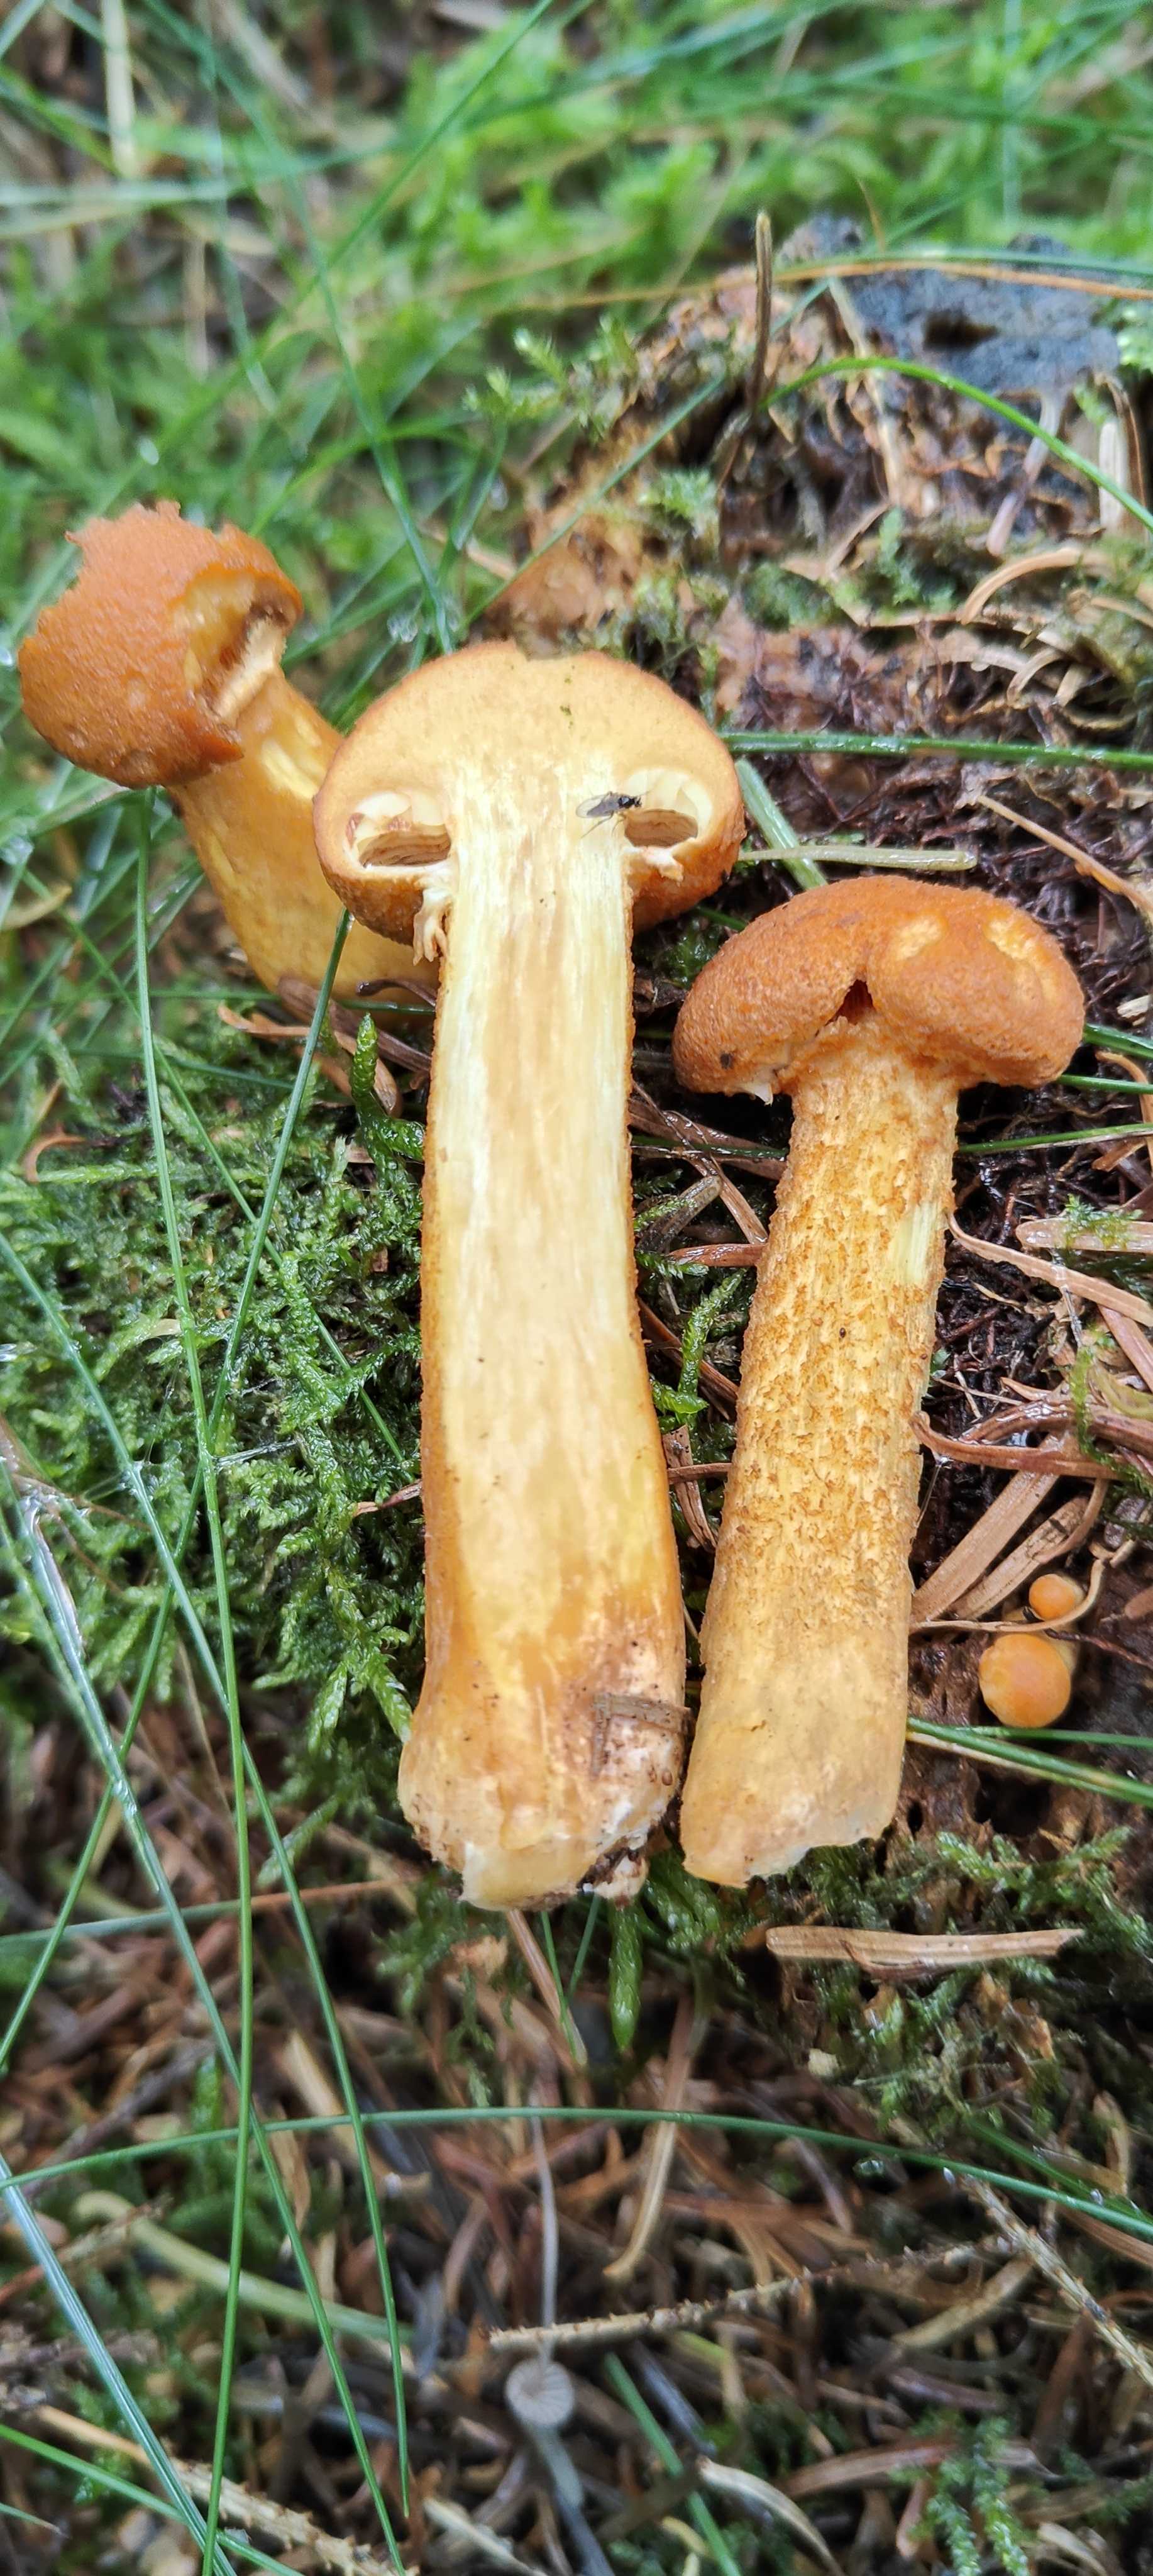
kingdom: Fungi
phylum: Basidiomycota
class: Agaricomycetes
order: Agaricales
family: Hymenogastraceae
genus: Gymnopilus
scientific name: Gymnopilus spectabilis
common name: fibret flammehat
